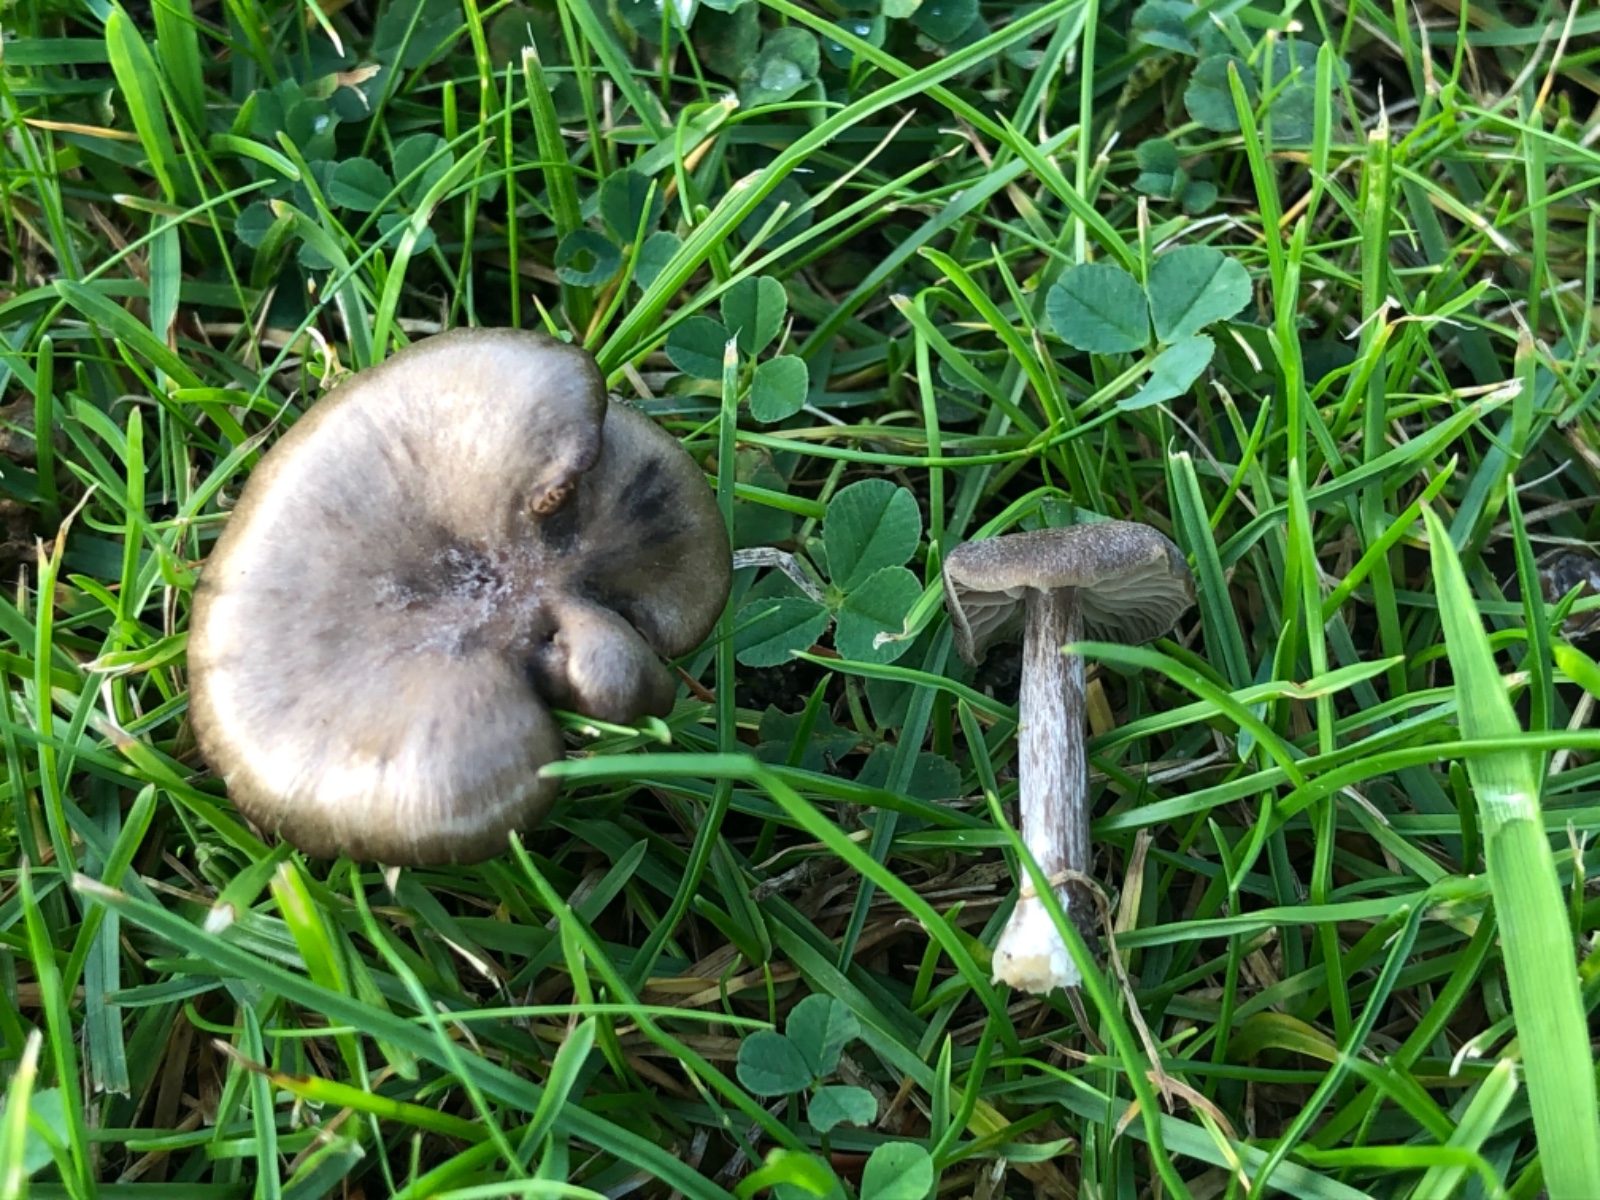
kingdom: Fungi
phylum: Basidiomycota
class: Agaricomycetes
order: Agaricales
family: Entolomataceae
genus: Entoloma
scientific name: Entoloma sericeum
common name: silkeglinsende rødblad
